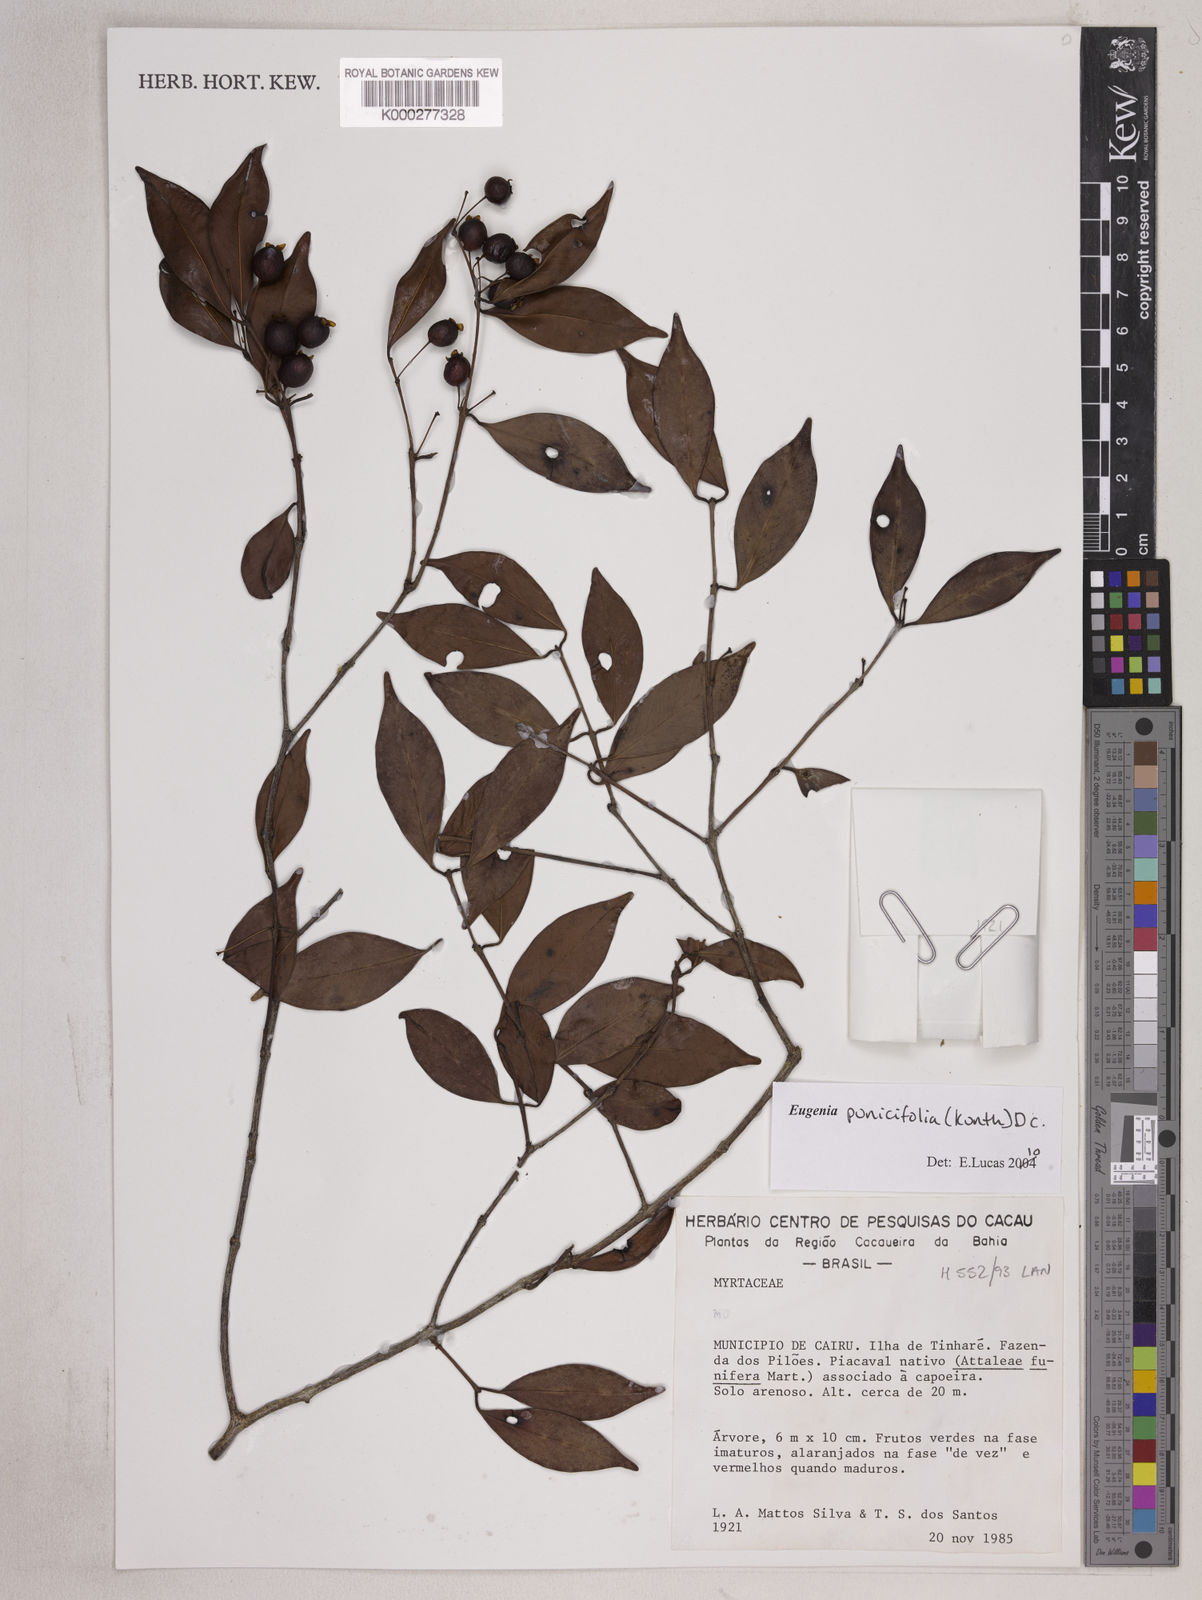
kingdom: Plantae
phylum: Tracheophyta
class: Magnoliopsida
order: Myrtales
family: Myrtaceae
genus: Eugenia
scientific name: Eugenia punicifolia
